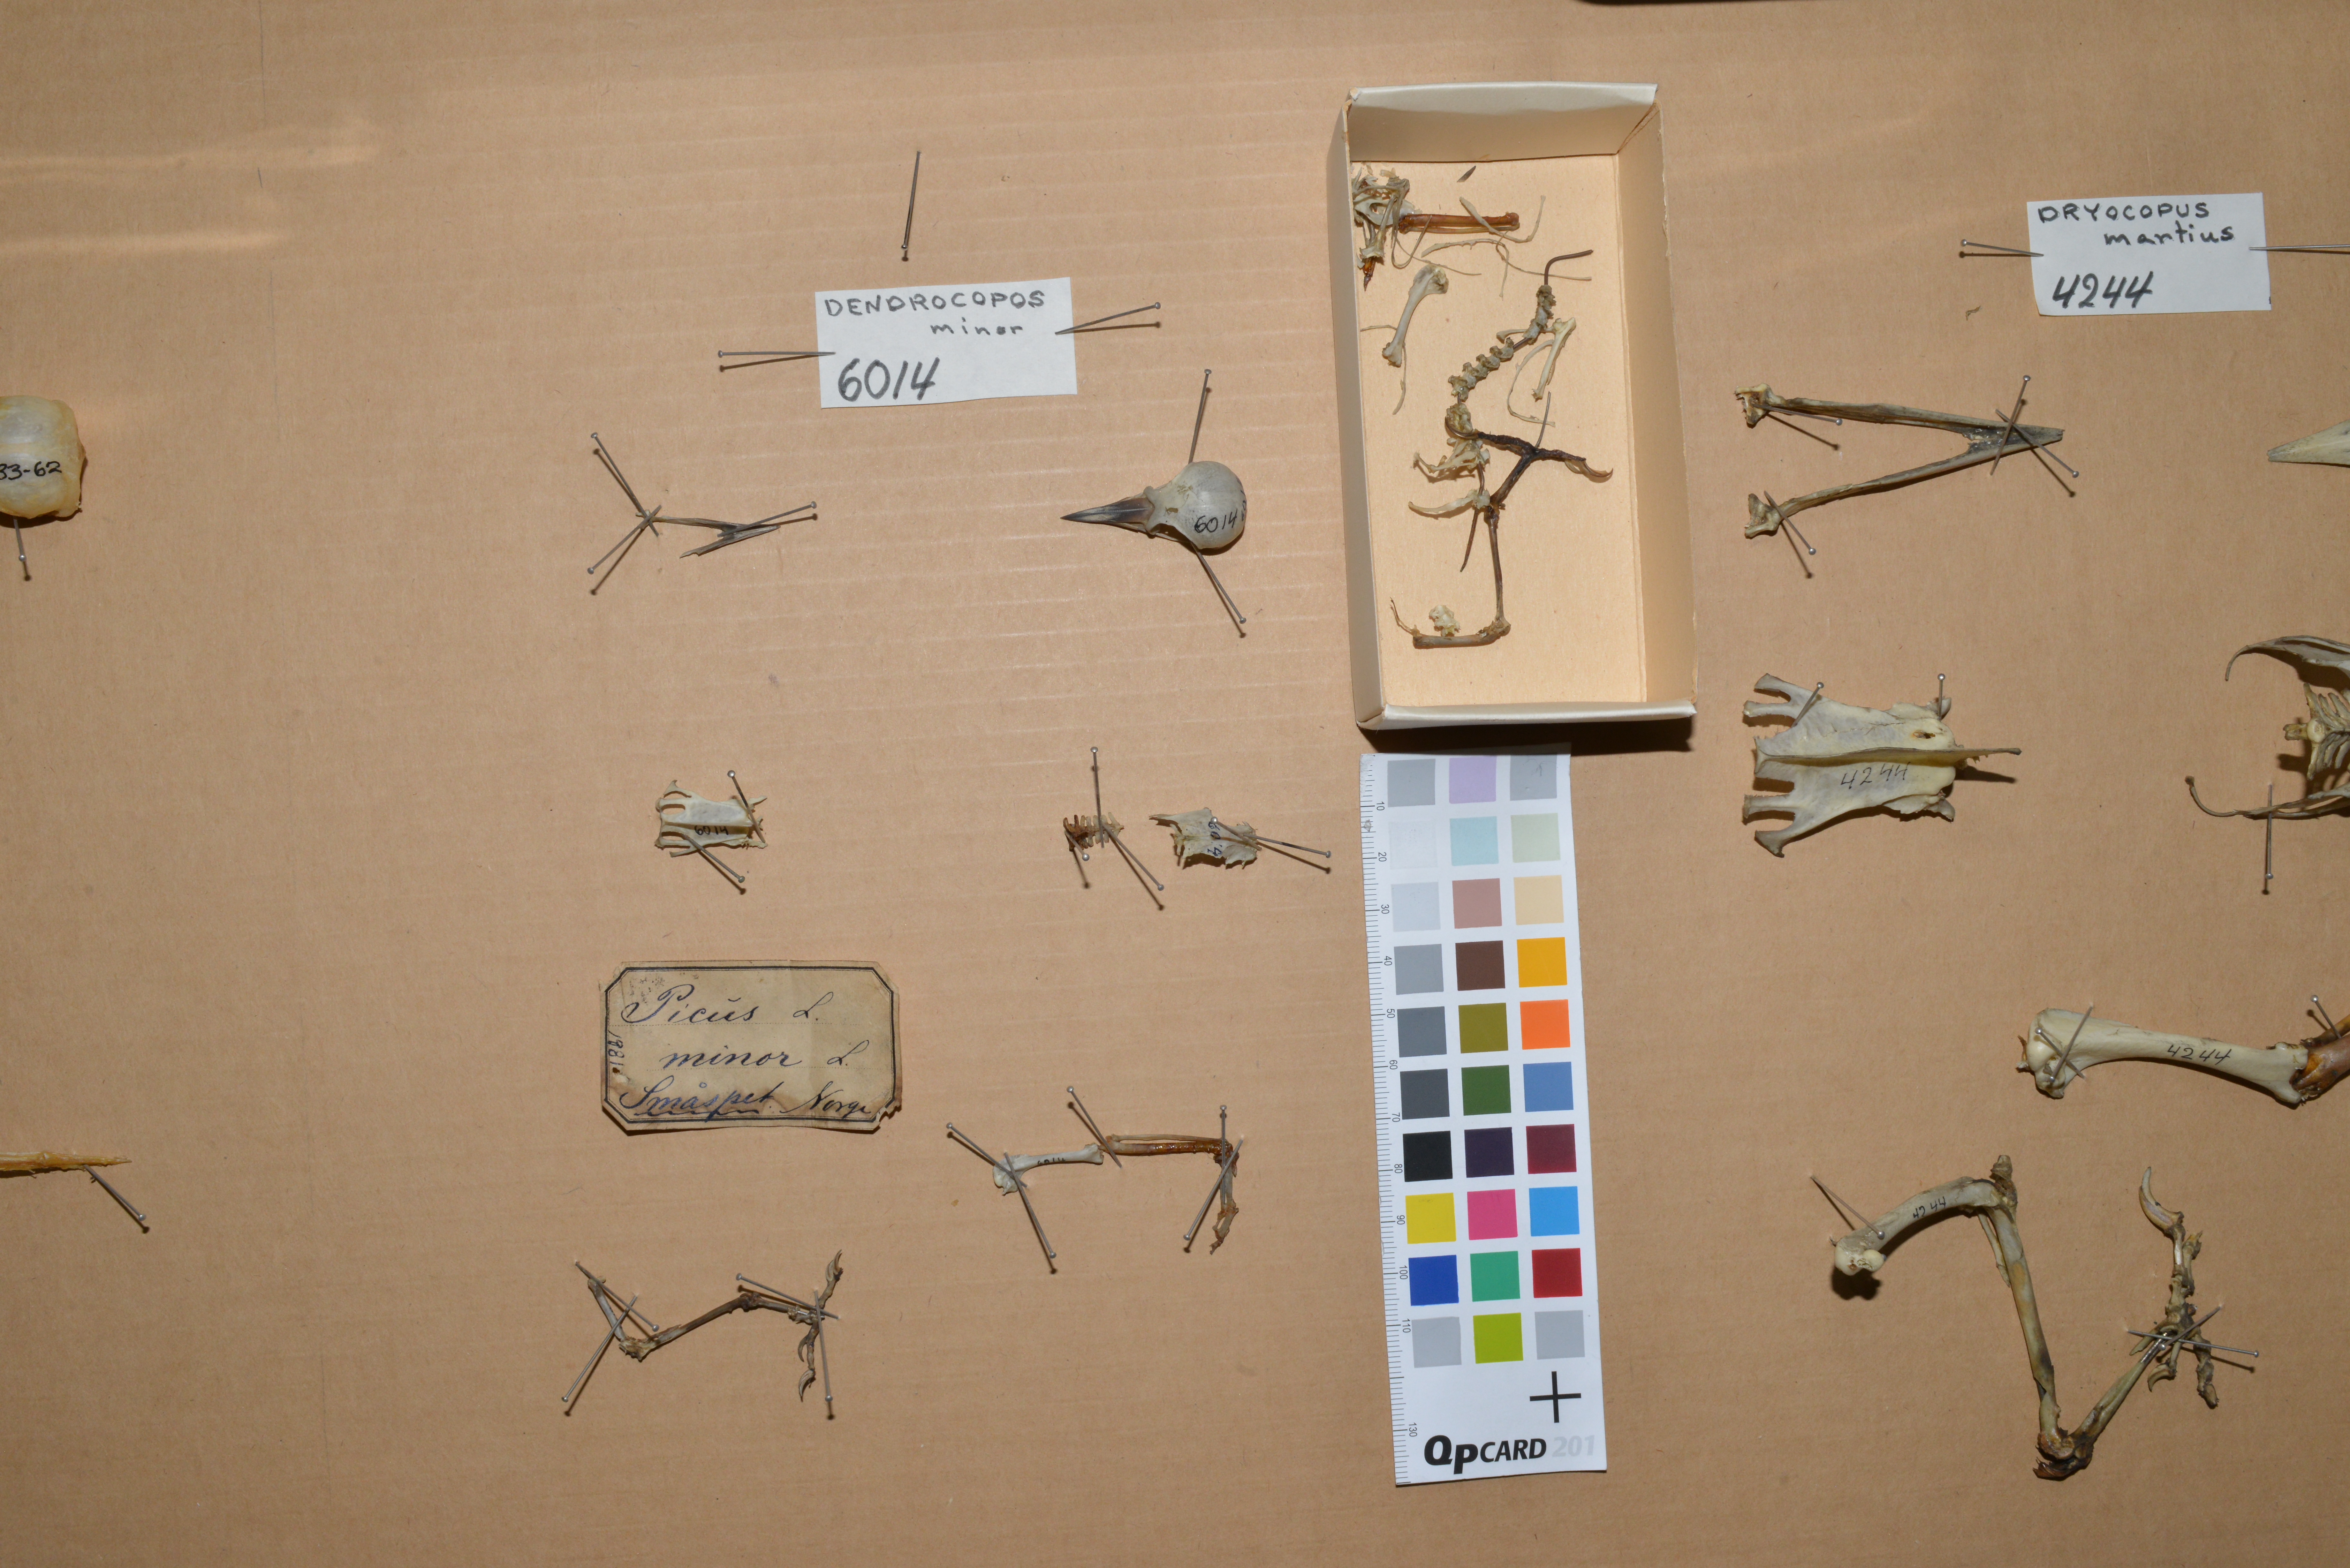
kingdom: Animalia
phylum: Chordata
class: Aves
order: Piciformes
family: Picidae
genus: Dryobates
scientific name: Dryobates minor
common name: Lesser spotted woodpecker
